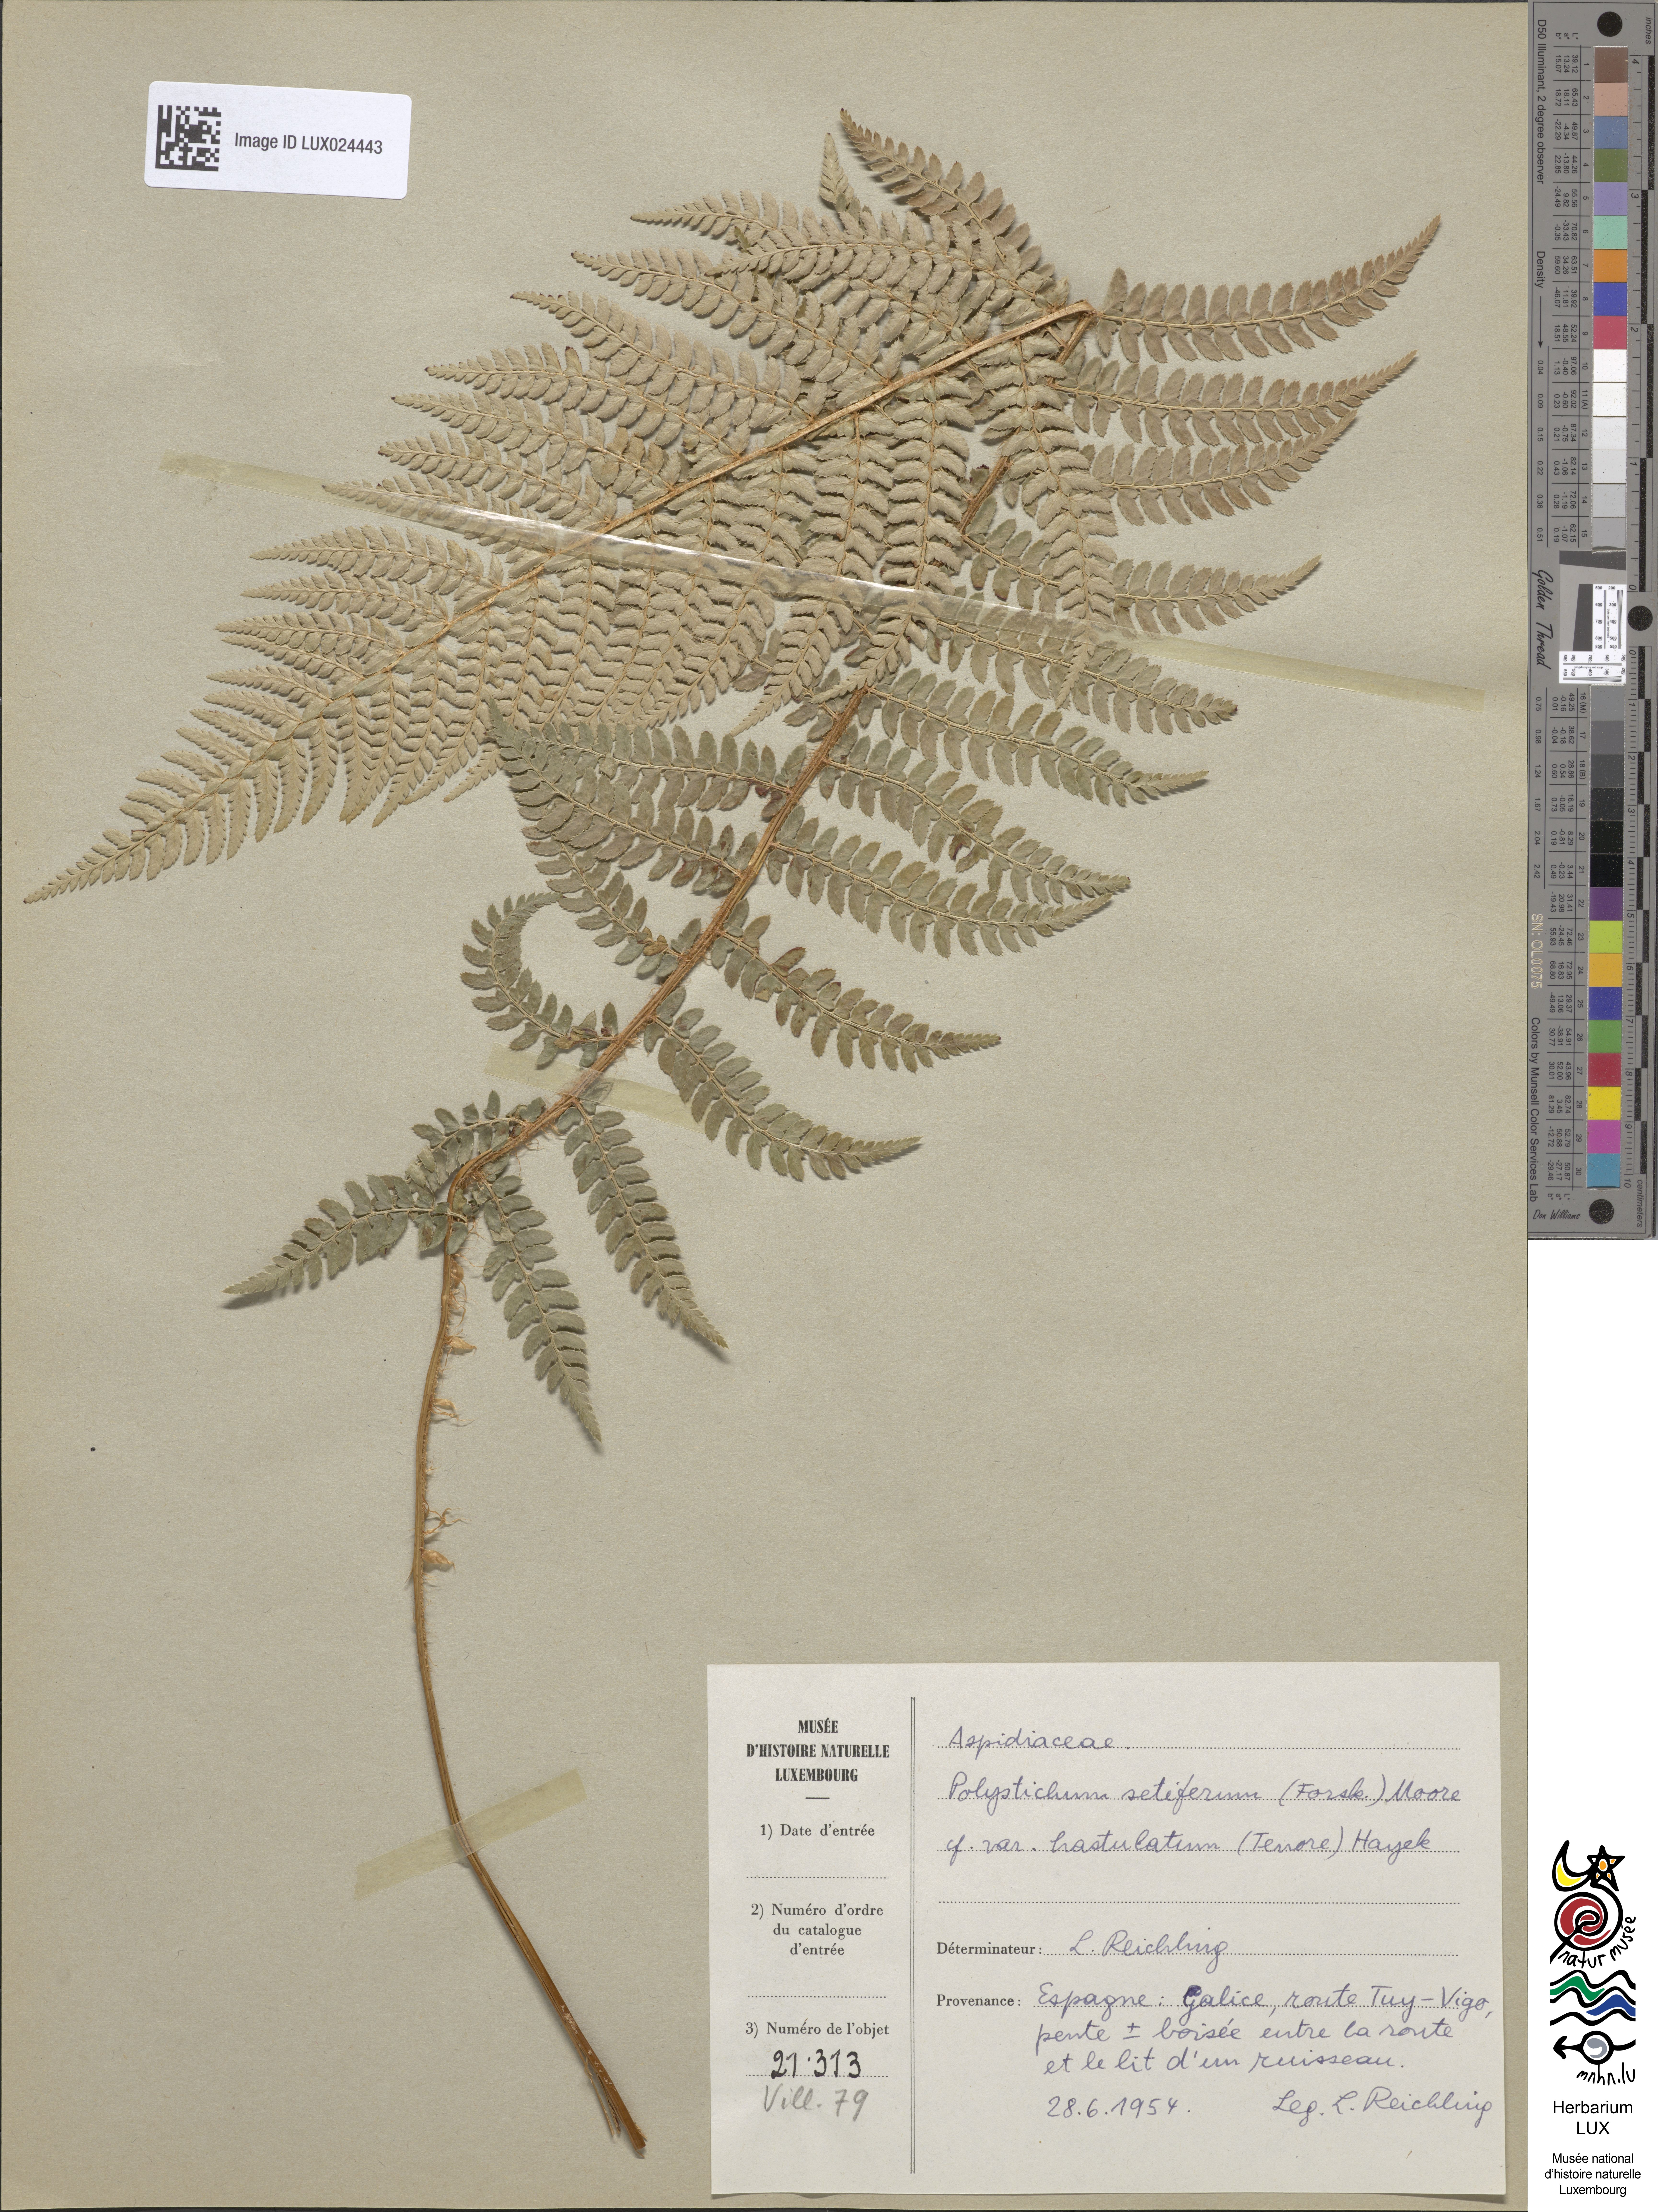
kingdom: Plantae
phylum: Tracheophyta
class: Polypodiopsida
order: Polypodiales
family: Dryopteridaceae
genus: Polystichum
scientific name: Polystichum setiferum
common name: Soft shield-fern
